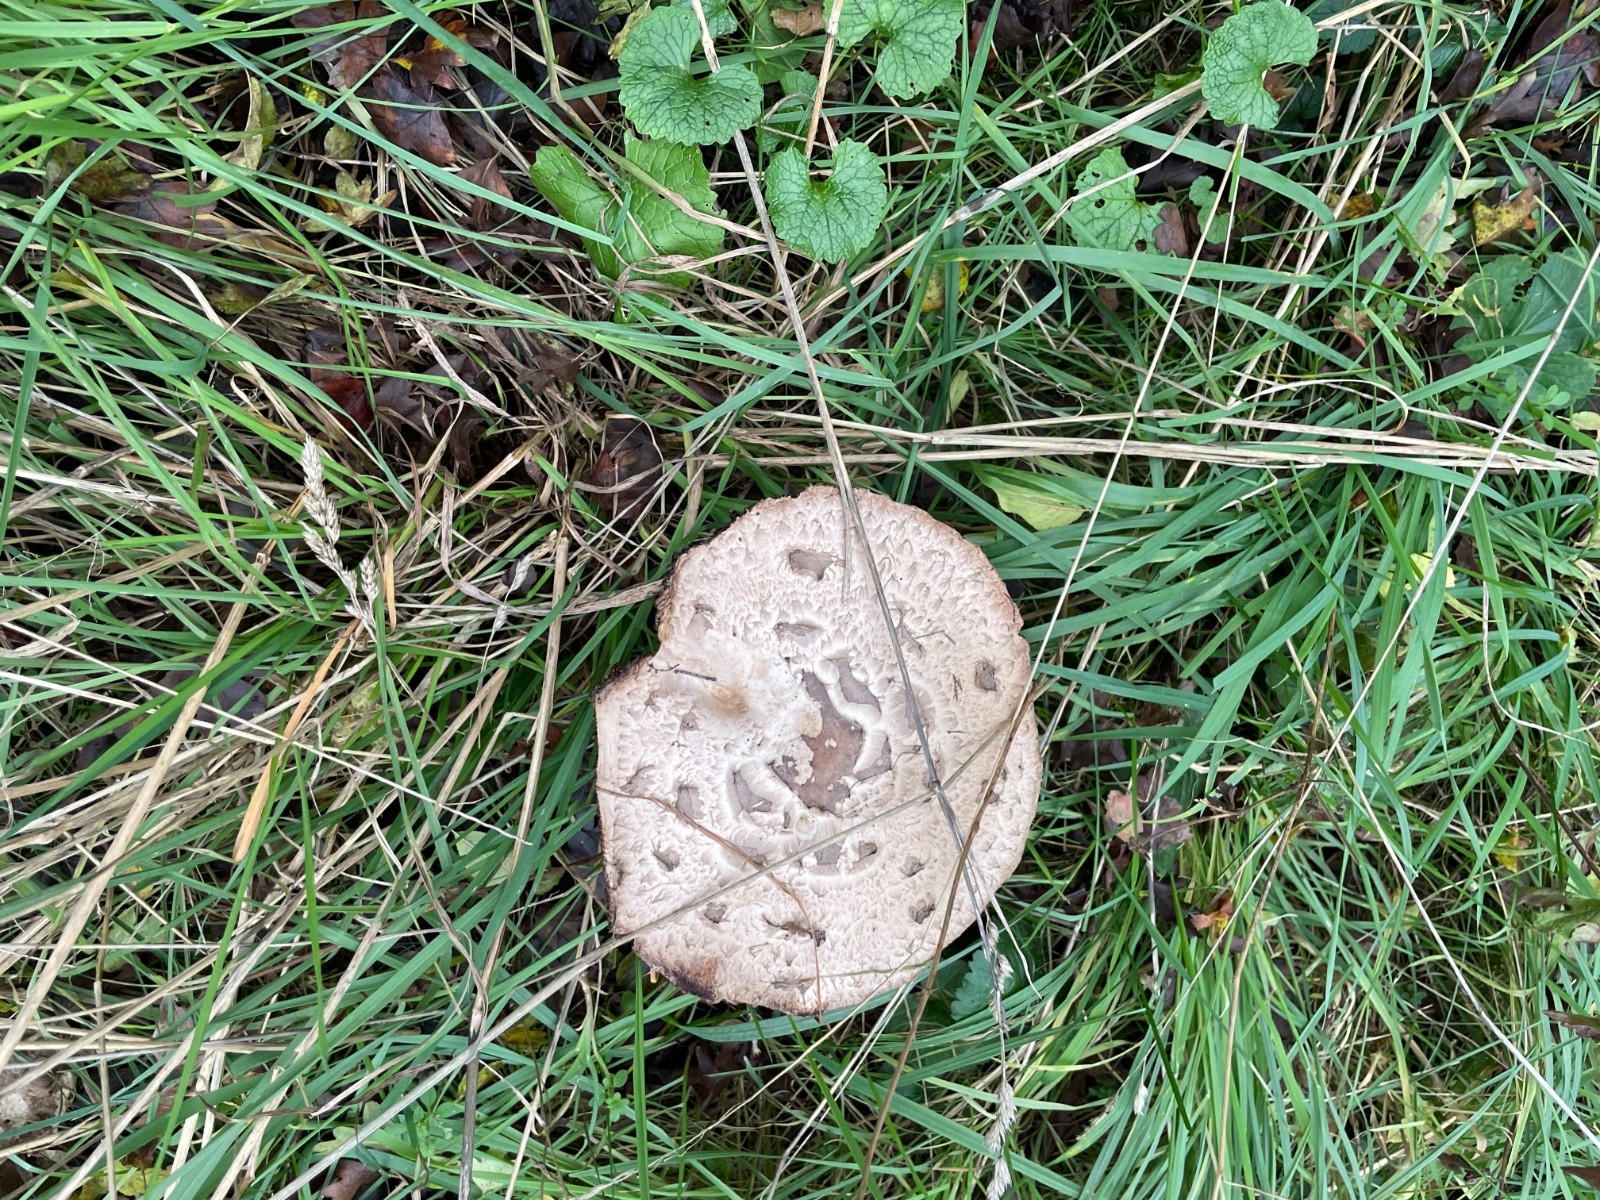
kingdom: Fungi
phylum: Basidiomycota
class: Agaricomycetes
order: Agaricales
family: Agaricaceae
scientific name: Agaricaceae
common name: champignonfamilien
